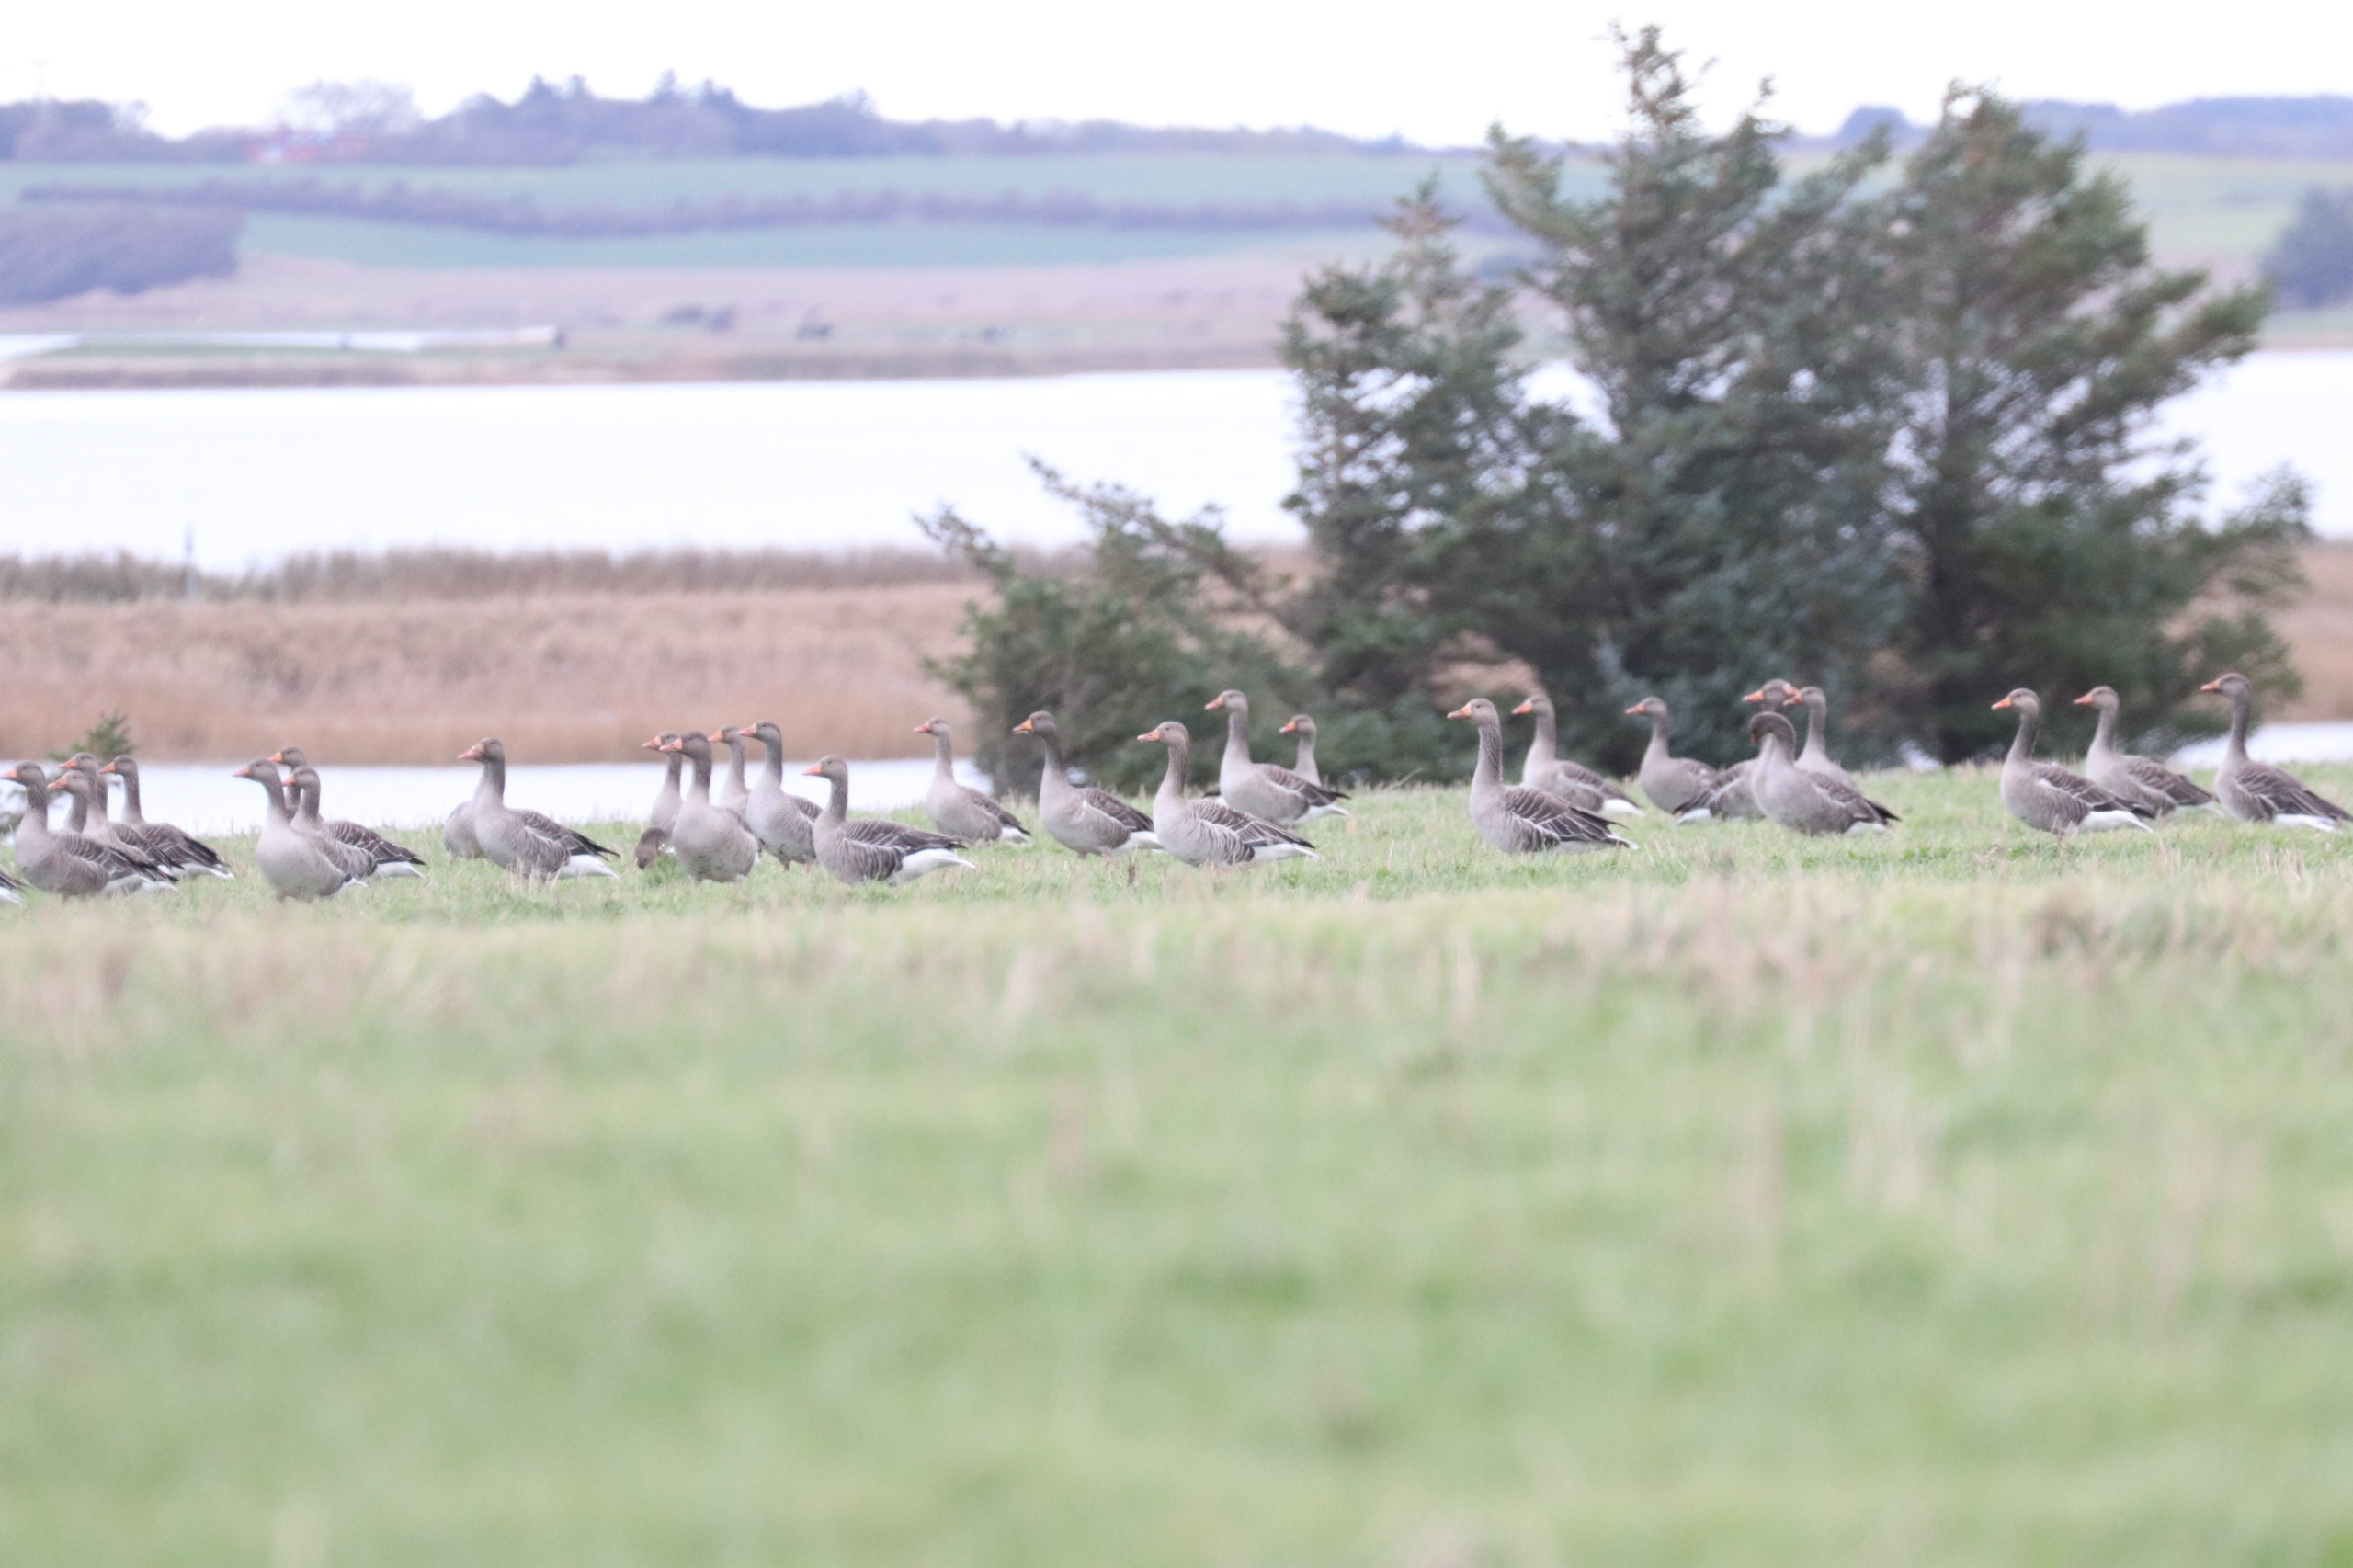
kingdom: Animalia
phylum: Chordata
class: Aves
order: Anseriformes
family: Anatidae
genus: Anser
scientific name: Anser anser
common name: Grågås
